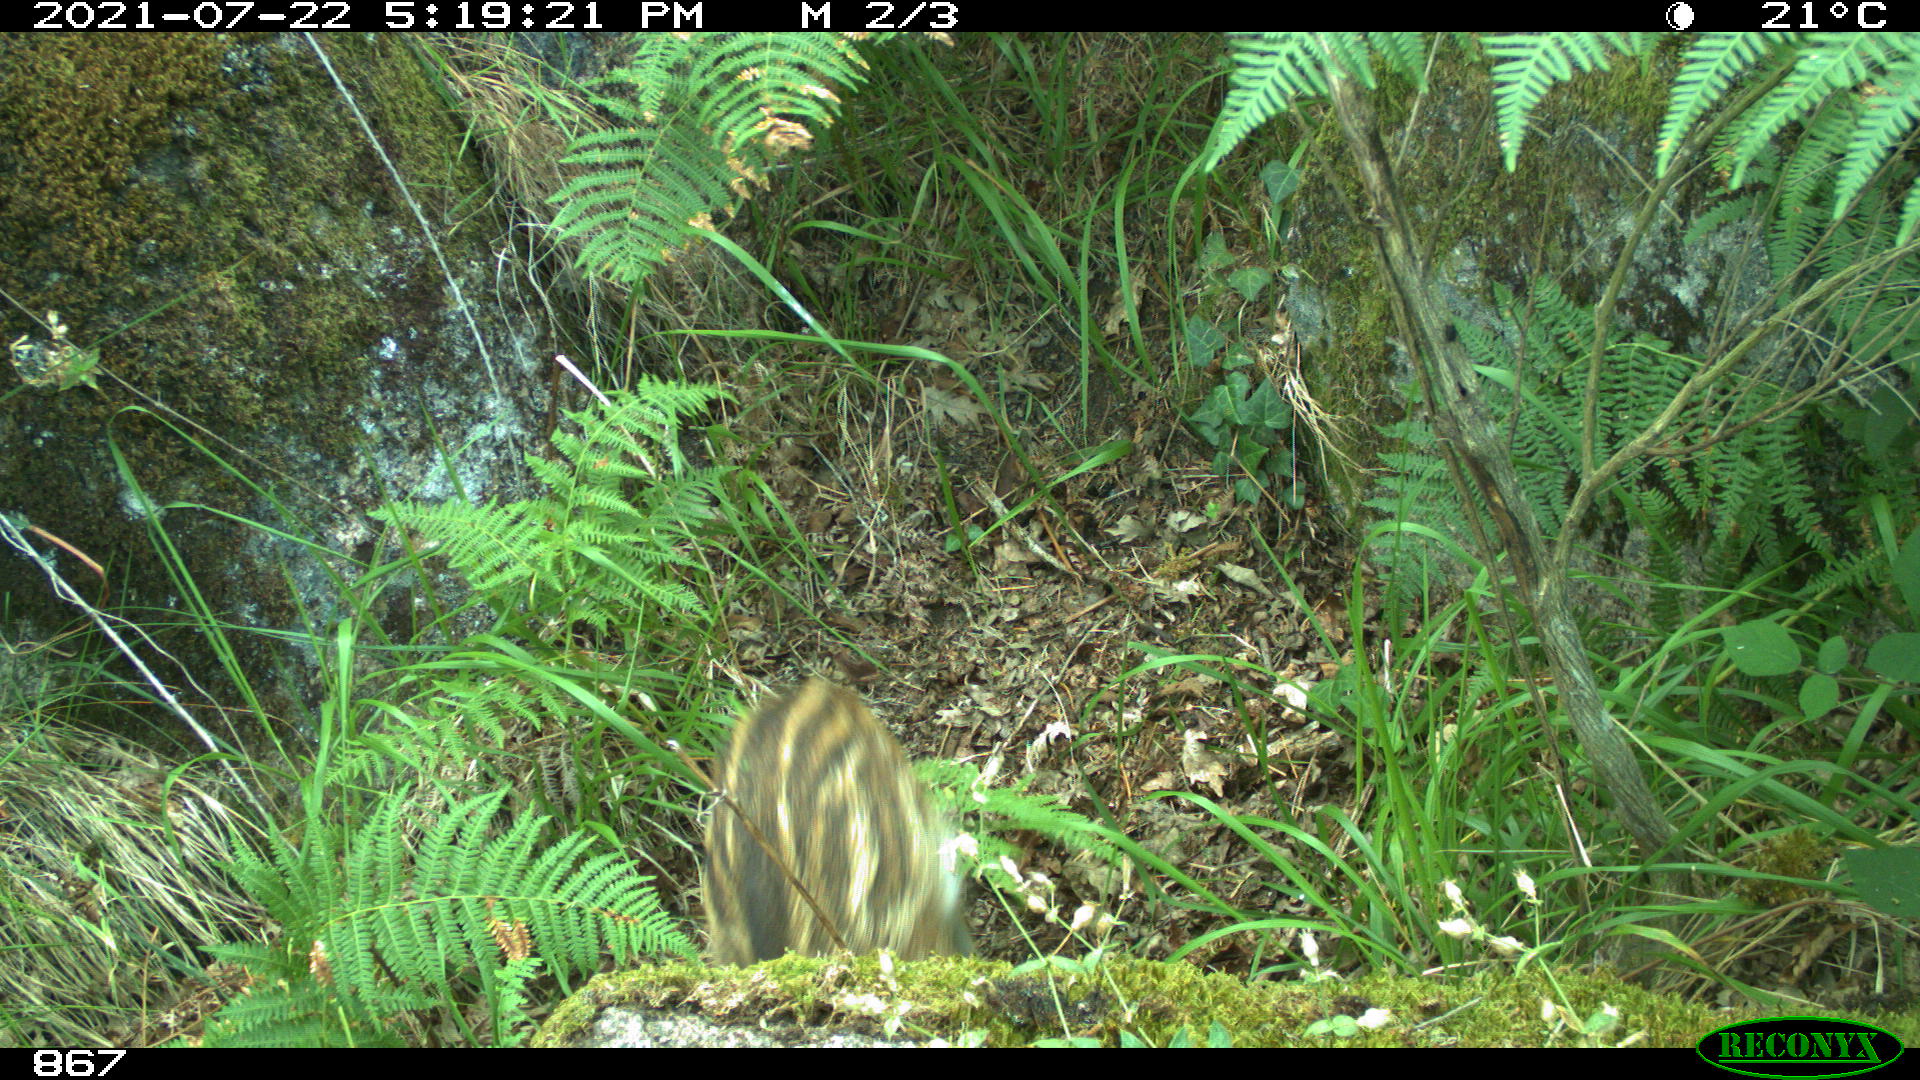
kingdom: Animalia
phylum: Chordata
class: Mammalia
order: Artiodactyla
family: Suidae
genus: Sus
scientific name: Sus scrofa
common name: Wild boar
